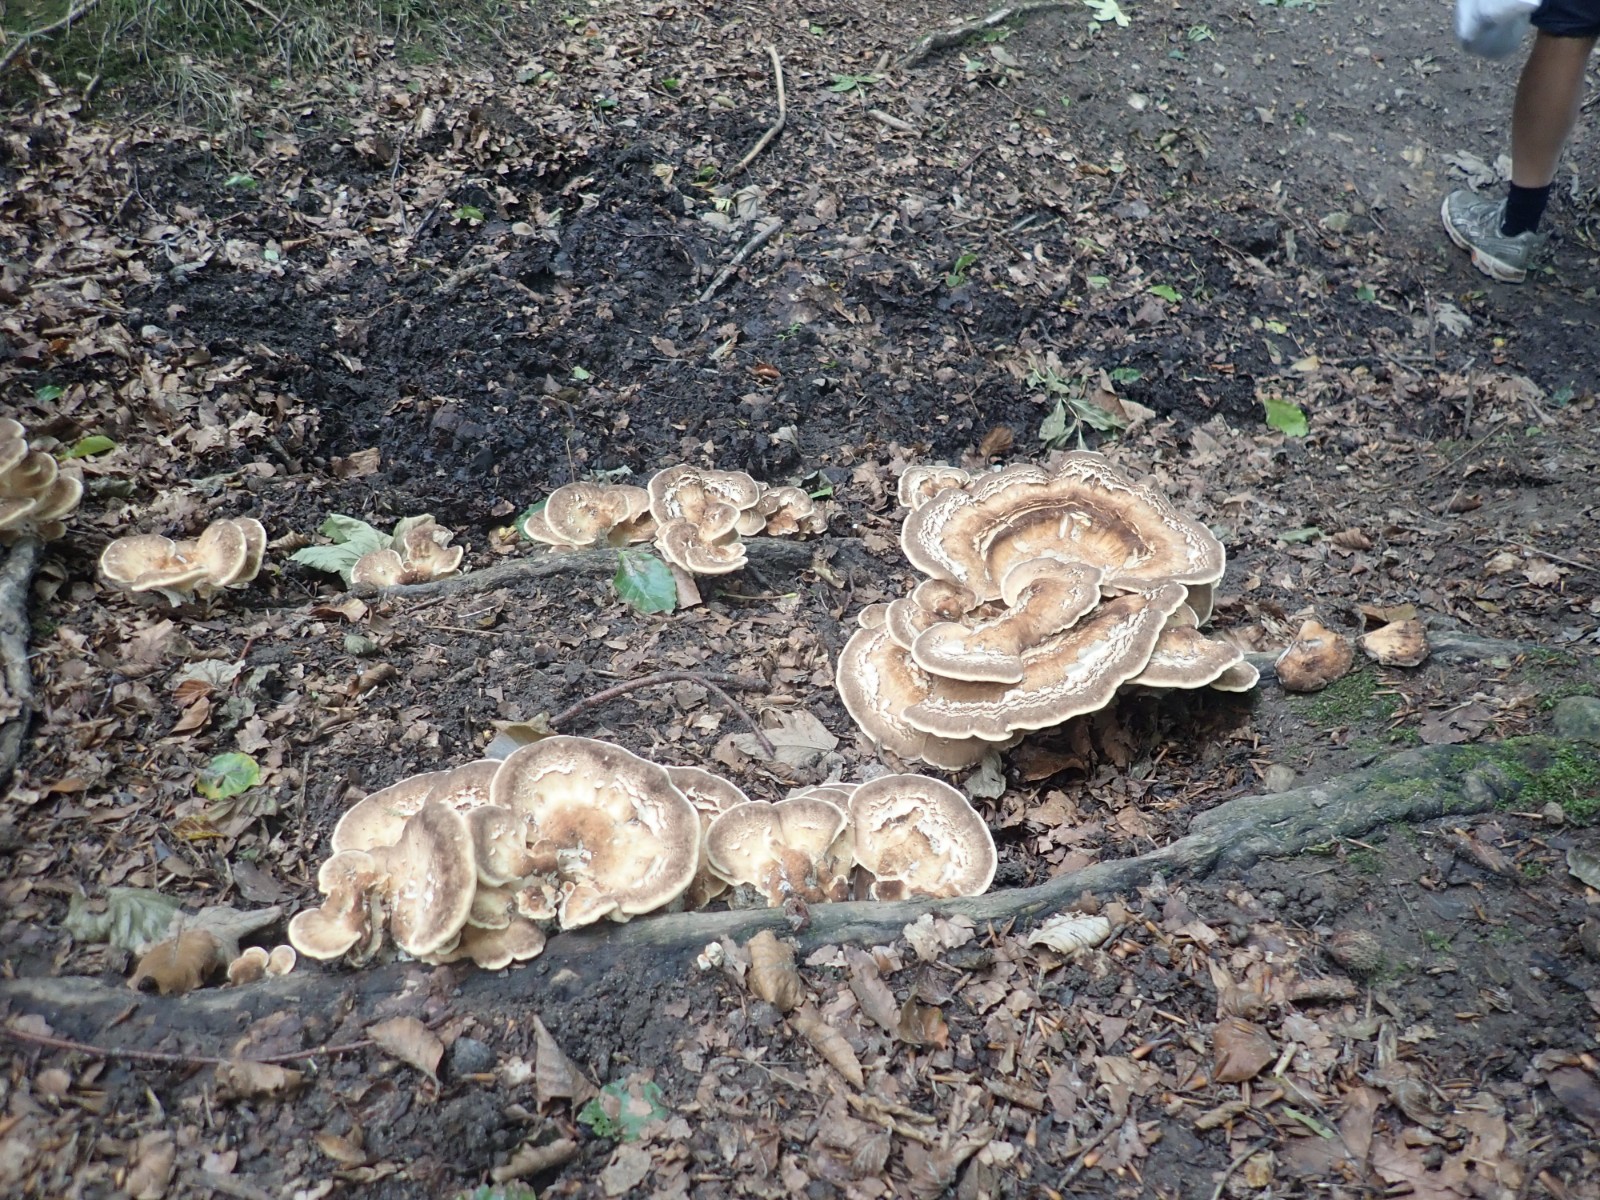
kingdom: Fungi
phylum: Basidiomycota
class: Agaricomycetes
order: Polyporales
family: Meripilaceae
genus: Meripilus
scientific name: Meripilus giganteus
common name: kæmpeporesvamp
